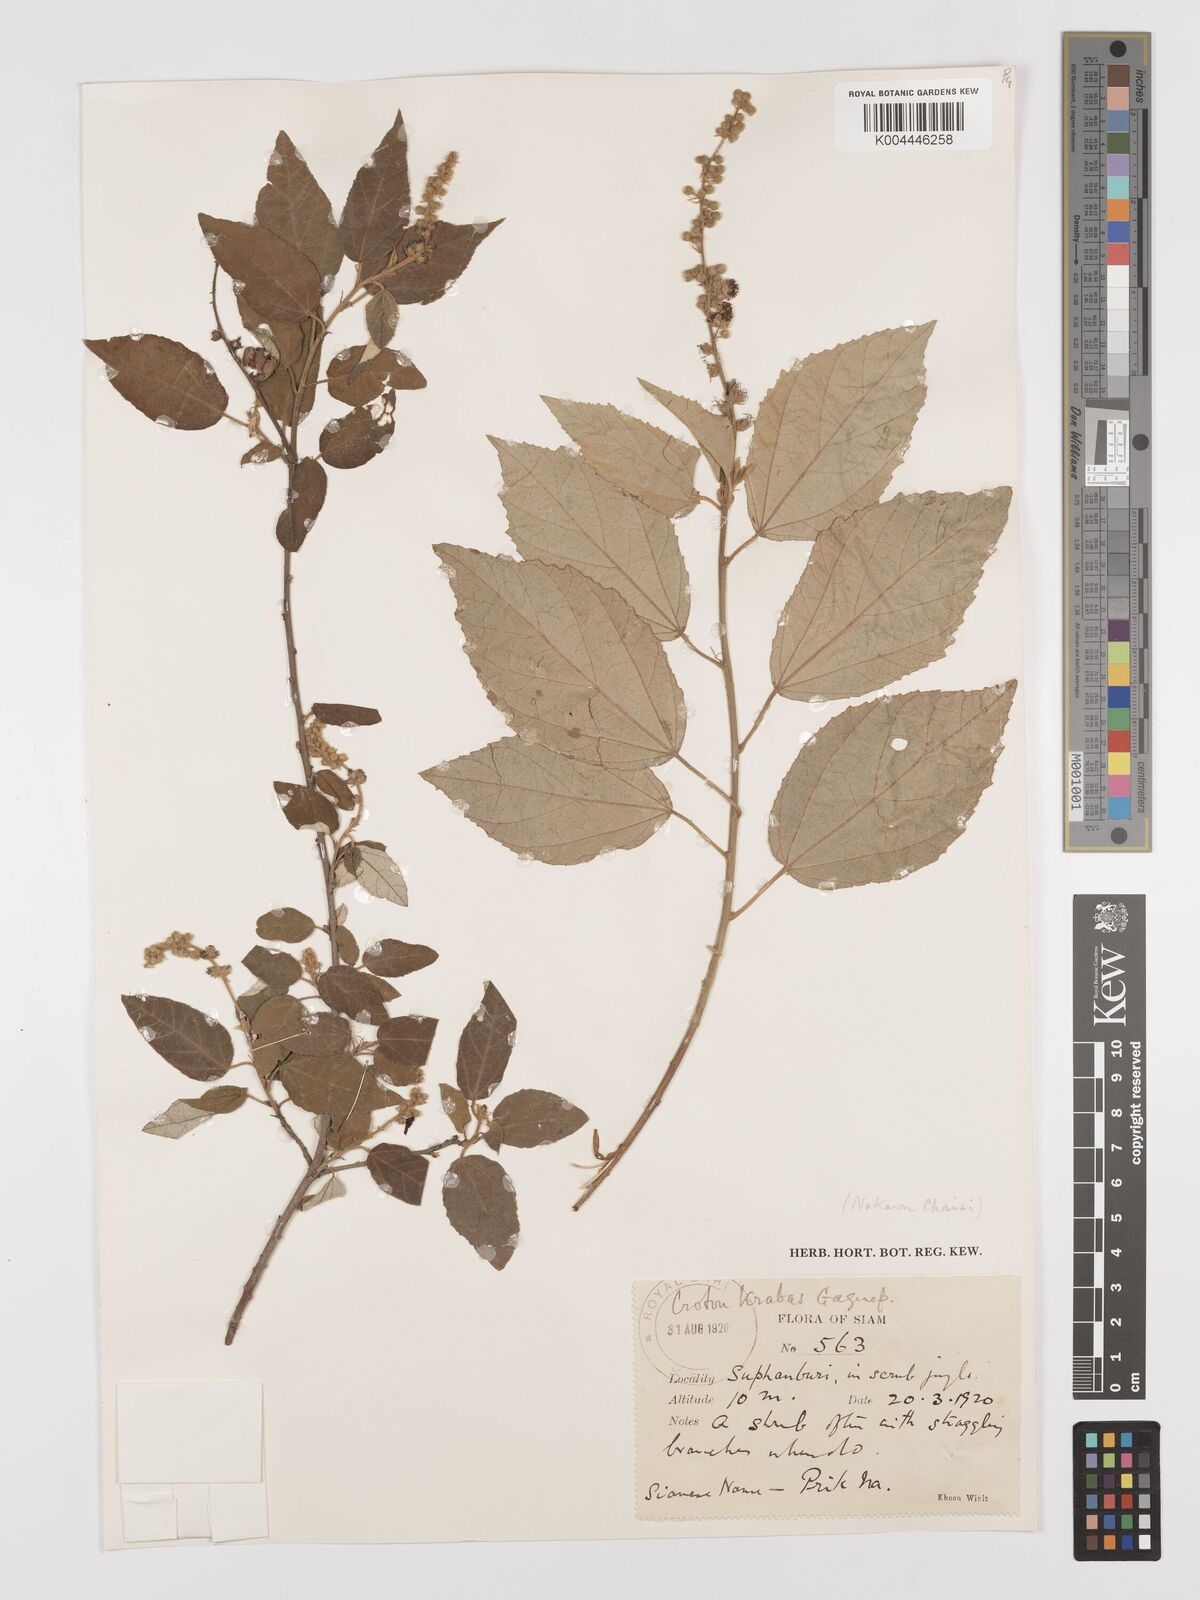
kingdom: Plantae
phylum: Tracheophyta
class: Magnoliopsida
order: Malpighiales
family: Euphorbiaceae
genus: Croton
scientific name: Croton krabas
